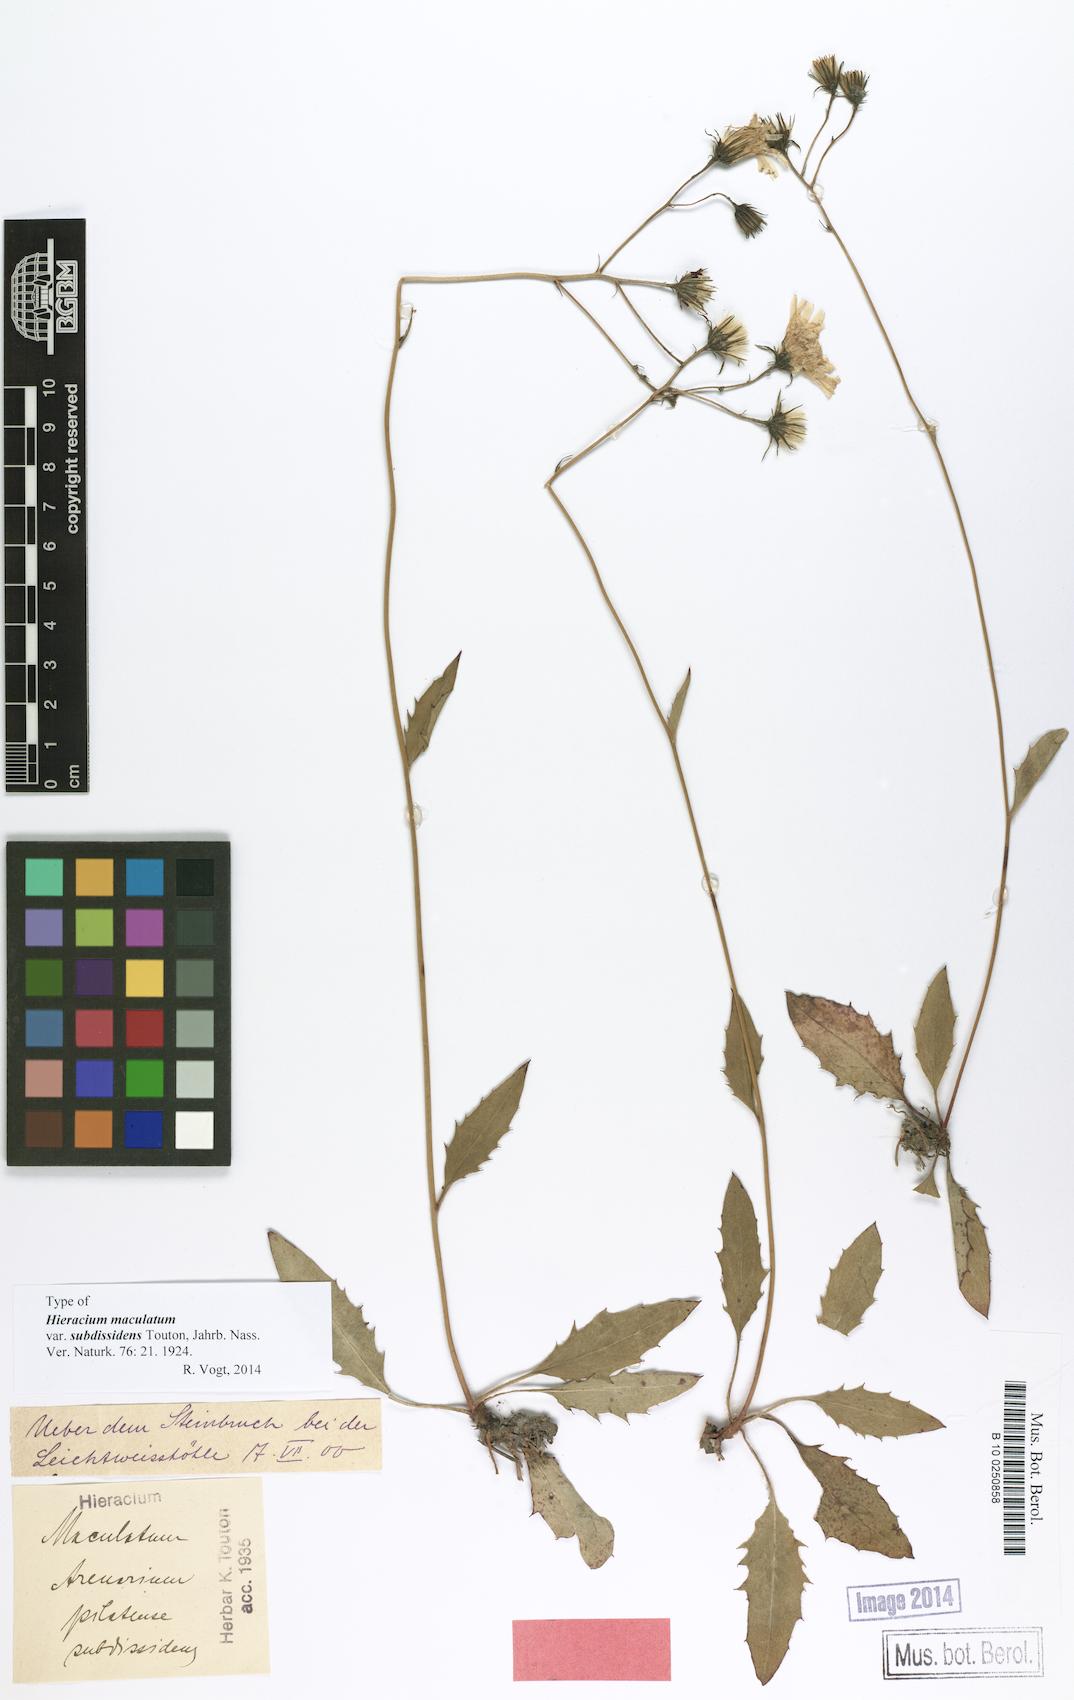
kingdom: Plantae
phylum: Tracheophyta
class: Magnoliopsida
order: Asterales
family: Asteraceae
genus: Hieracium
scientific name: Hieracium maculatum
